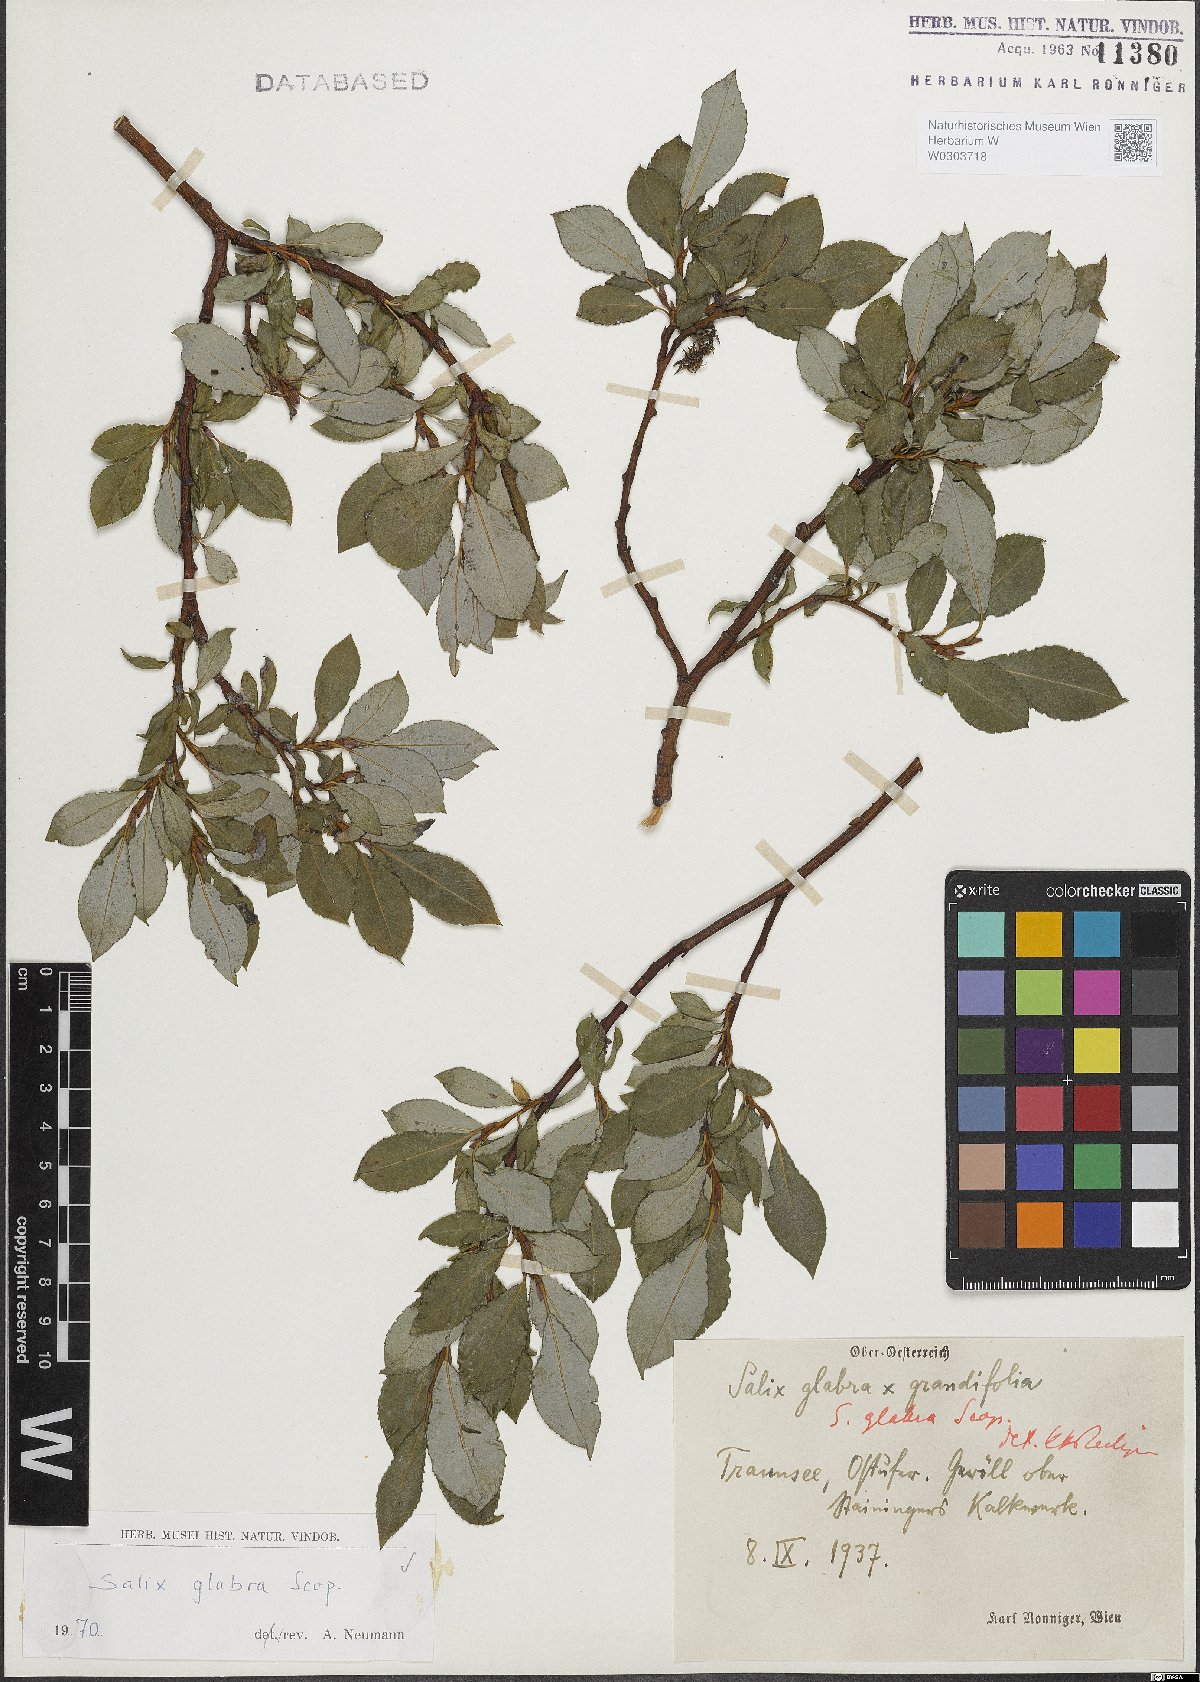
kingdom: Plantae
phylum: Tracheophyta
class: Magnoliopsida
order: Malpighiales
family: Salicaceae
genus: Salix
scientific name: Salix glabra
